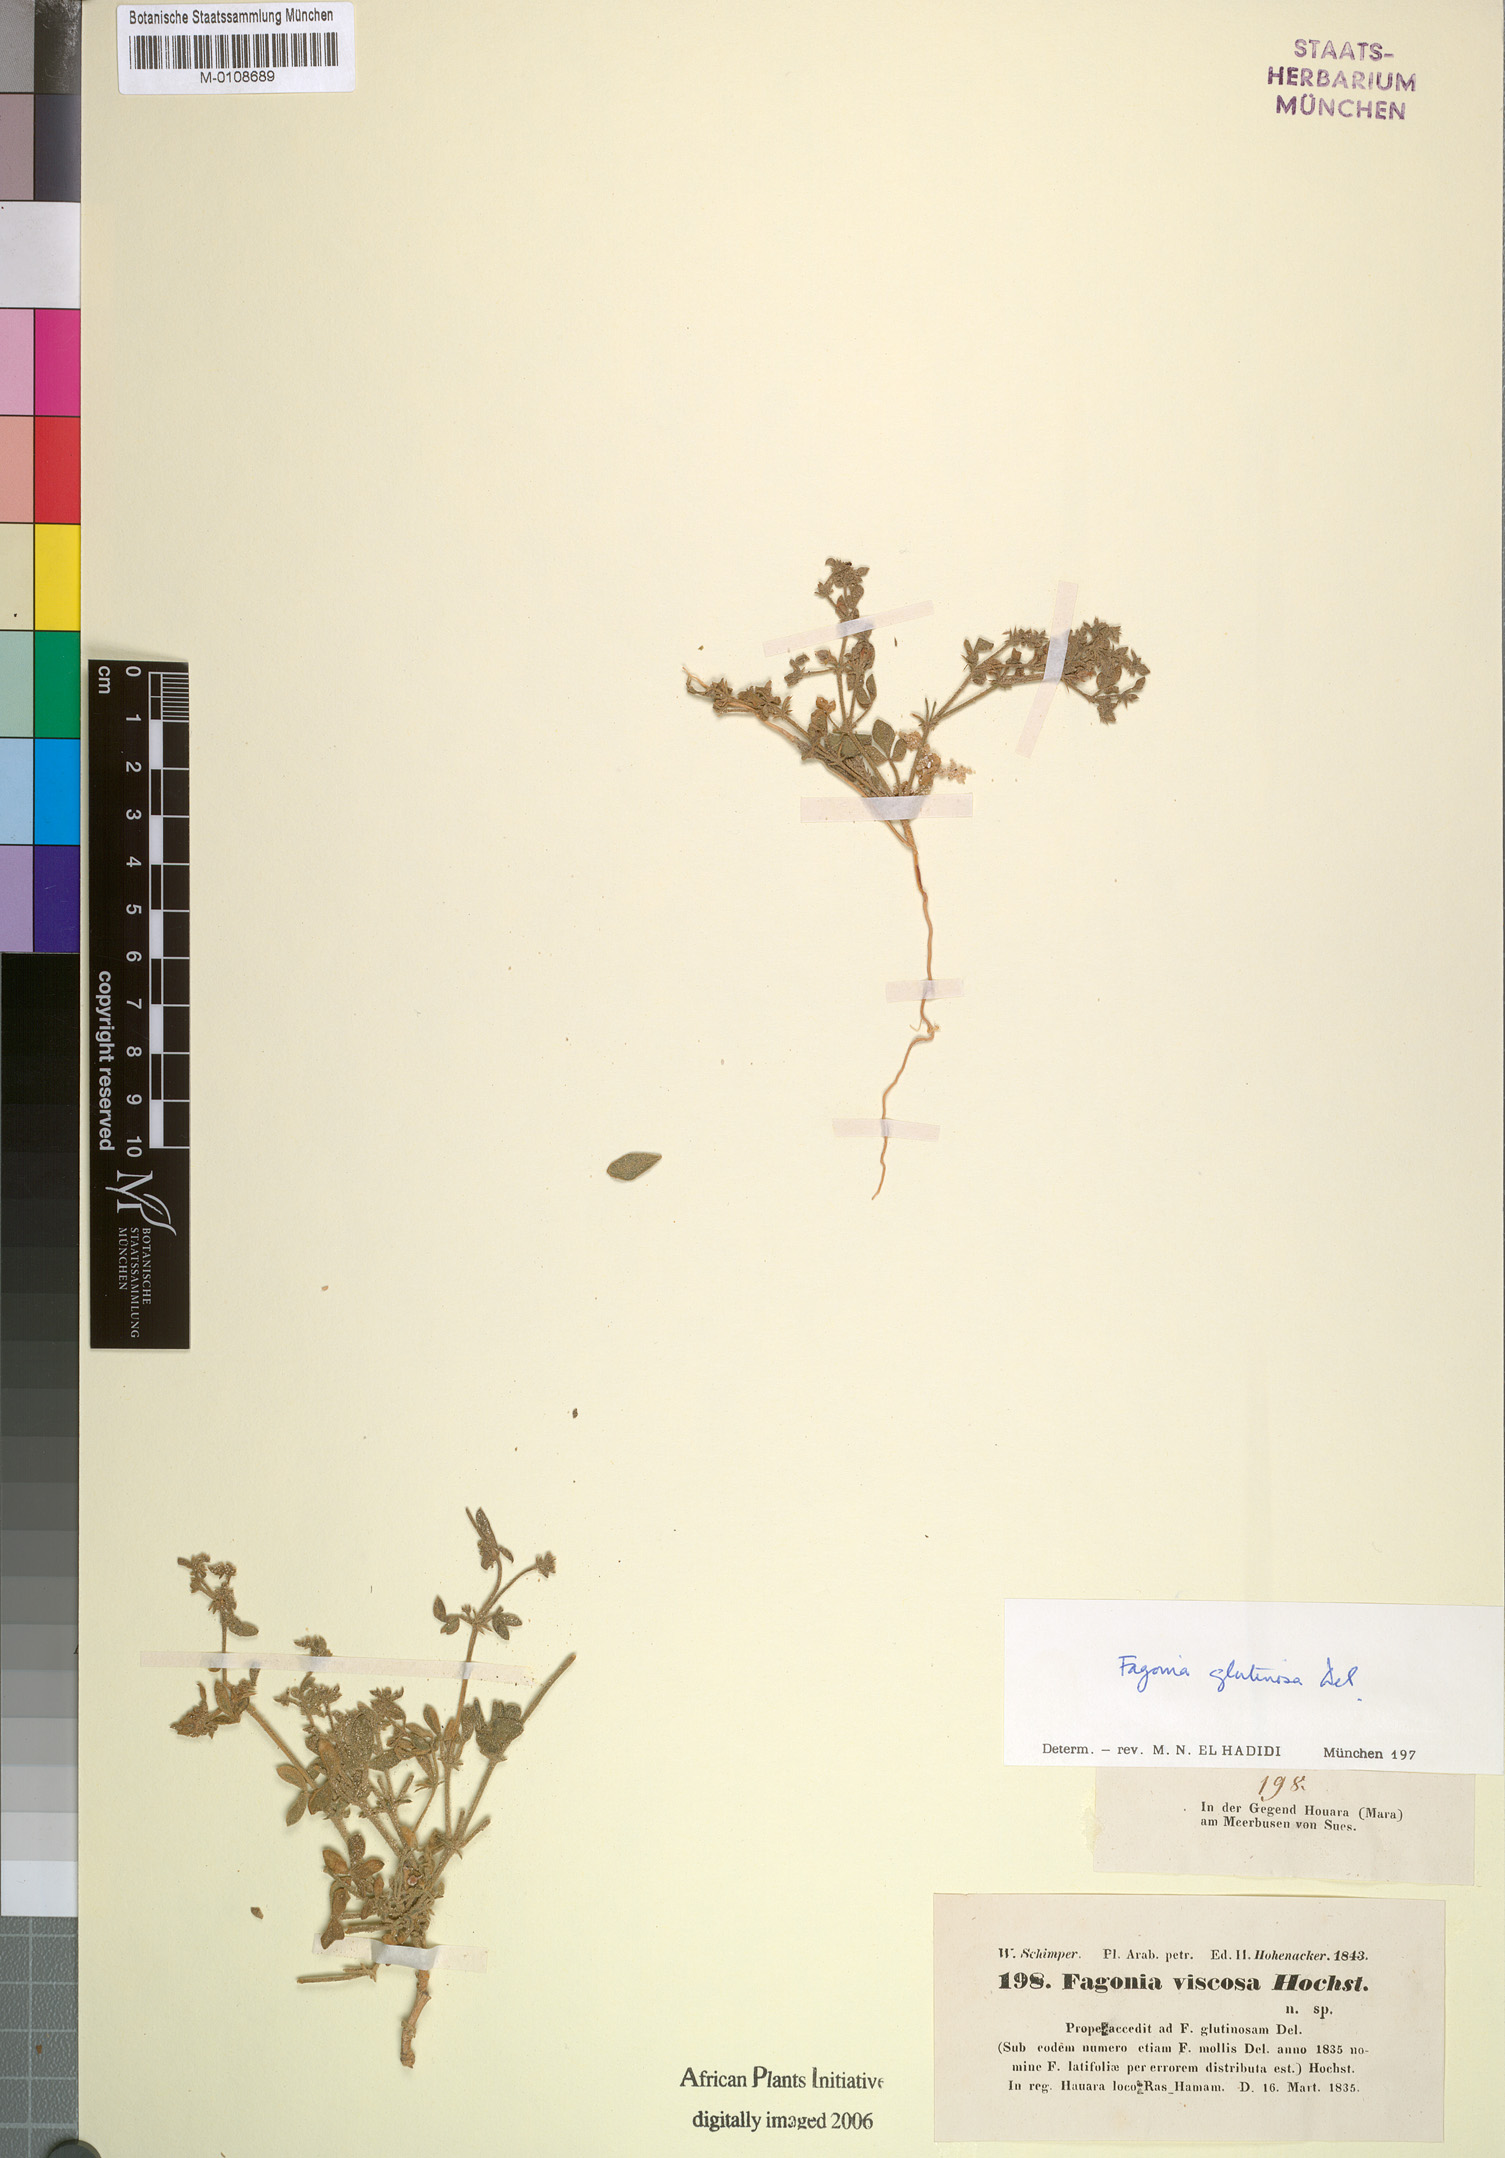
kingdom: Plantae
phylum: Tracheophyta
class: Magnoliopsida
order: Zygophyllales
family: Zygophyllaceae
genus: Fagonia
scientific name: Fagonia glutinosa
